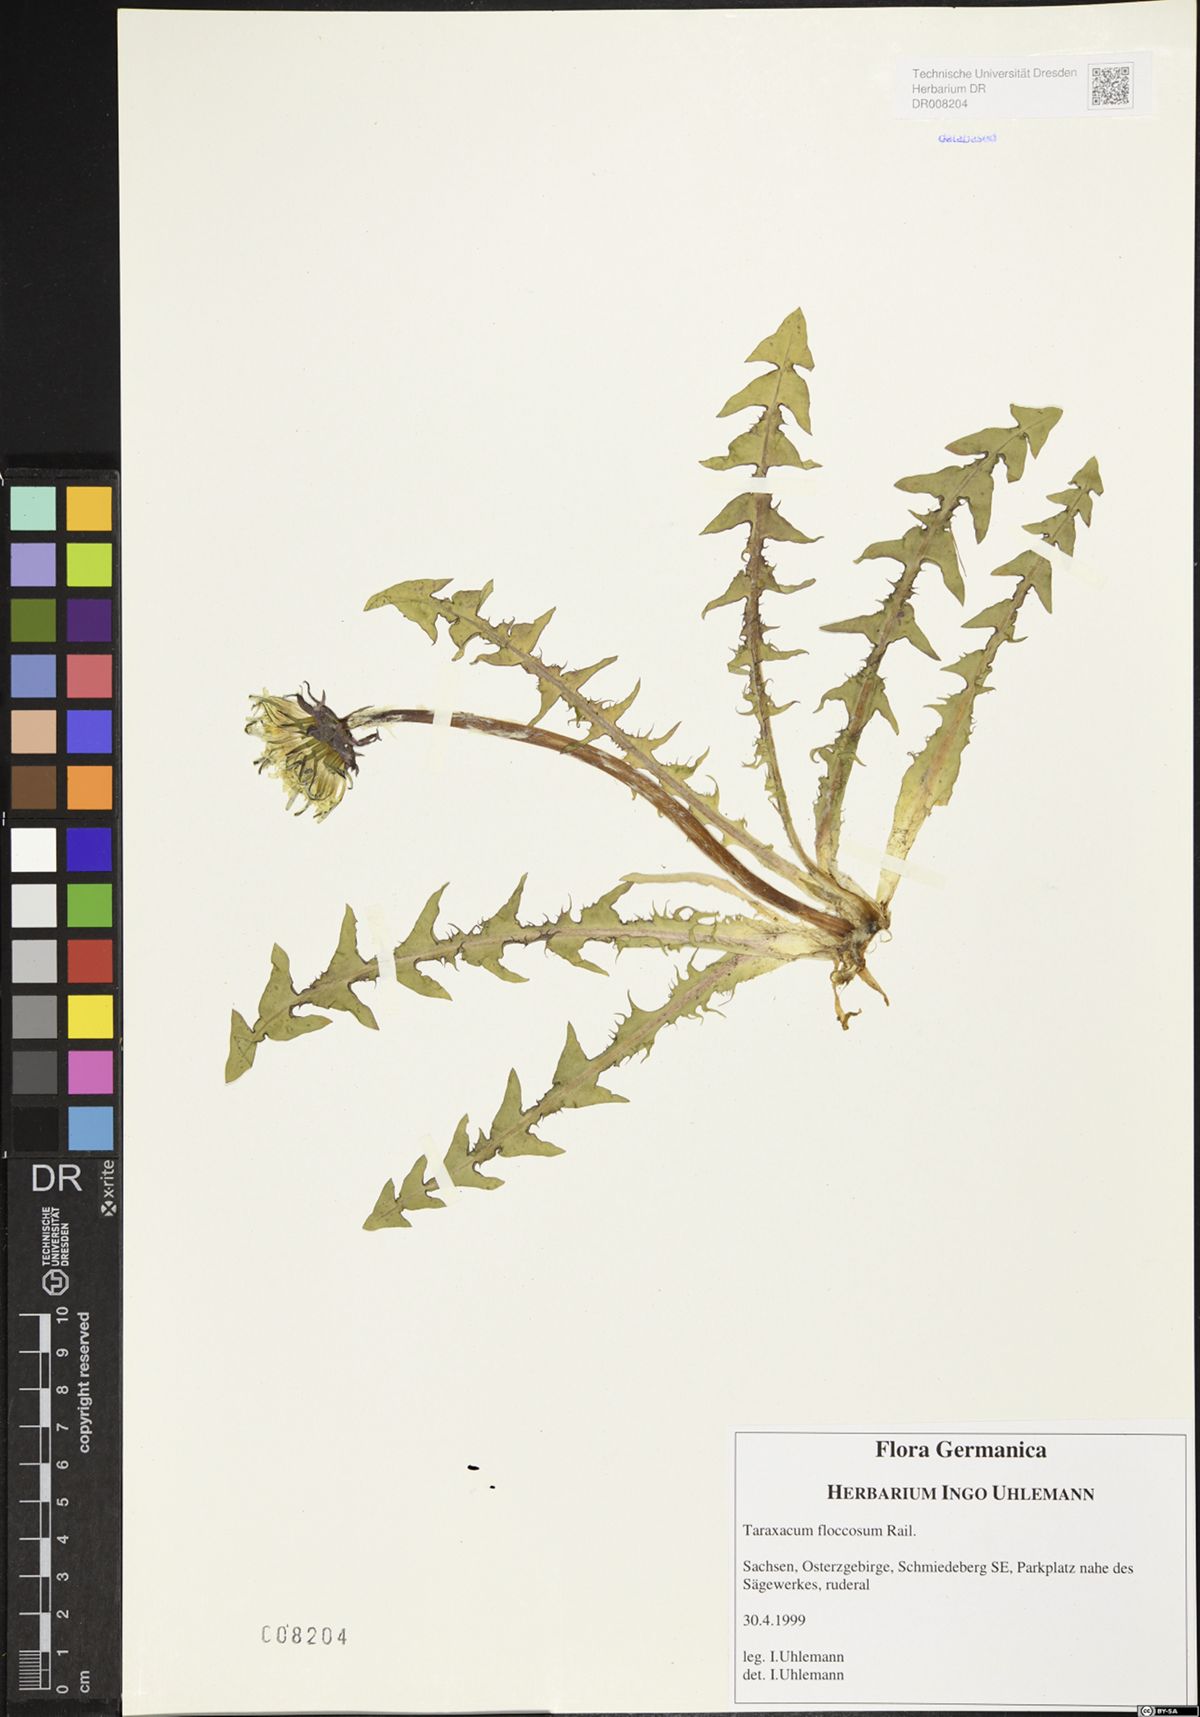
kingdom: Plantae
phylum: Tracheophyta
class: Magnoliopsida
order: Asterales
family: Asteraceae
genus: Taraxacum
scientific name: Taraxacum floccosum
